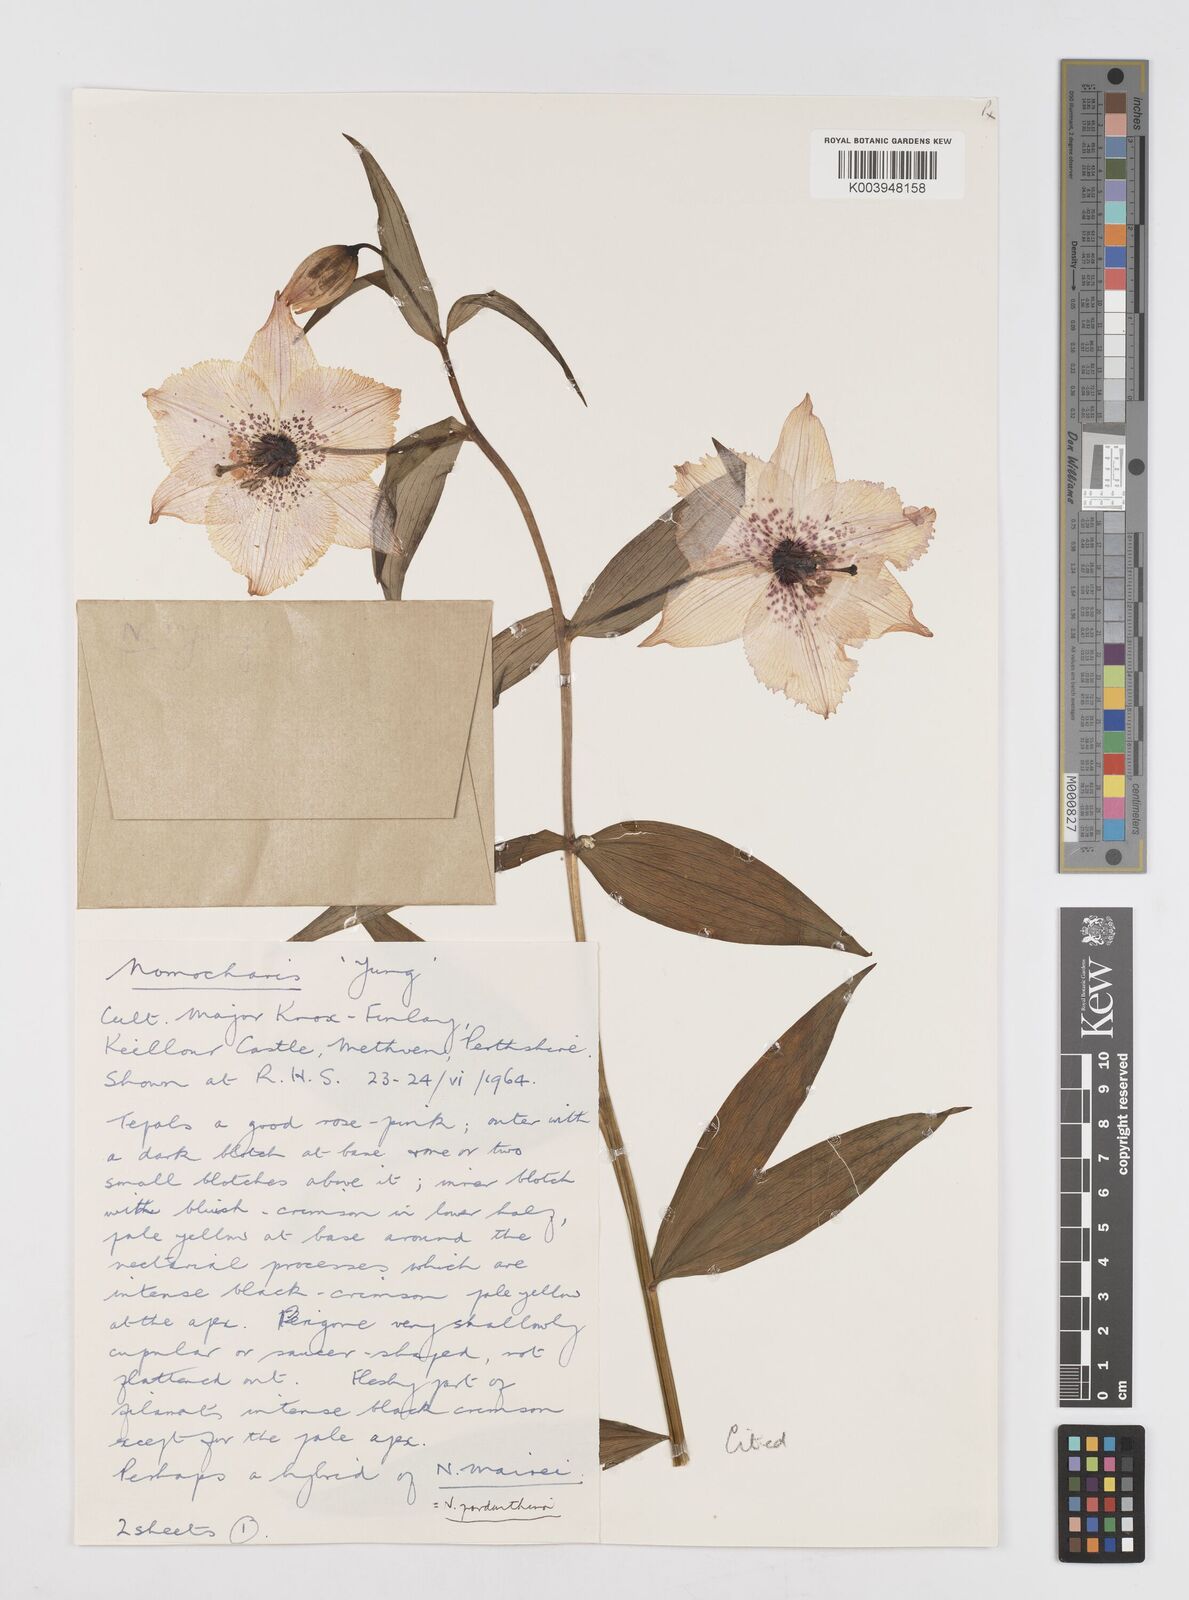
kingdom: Plantae
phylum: Tracheophyta
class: Liliopsida
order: Liliales
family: Liliaceae
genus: Lilium
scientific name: Lilium Nomocharis finlayorum
